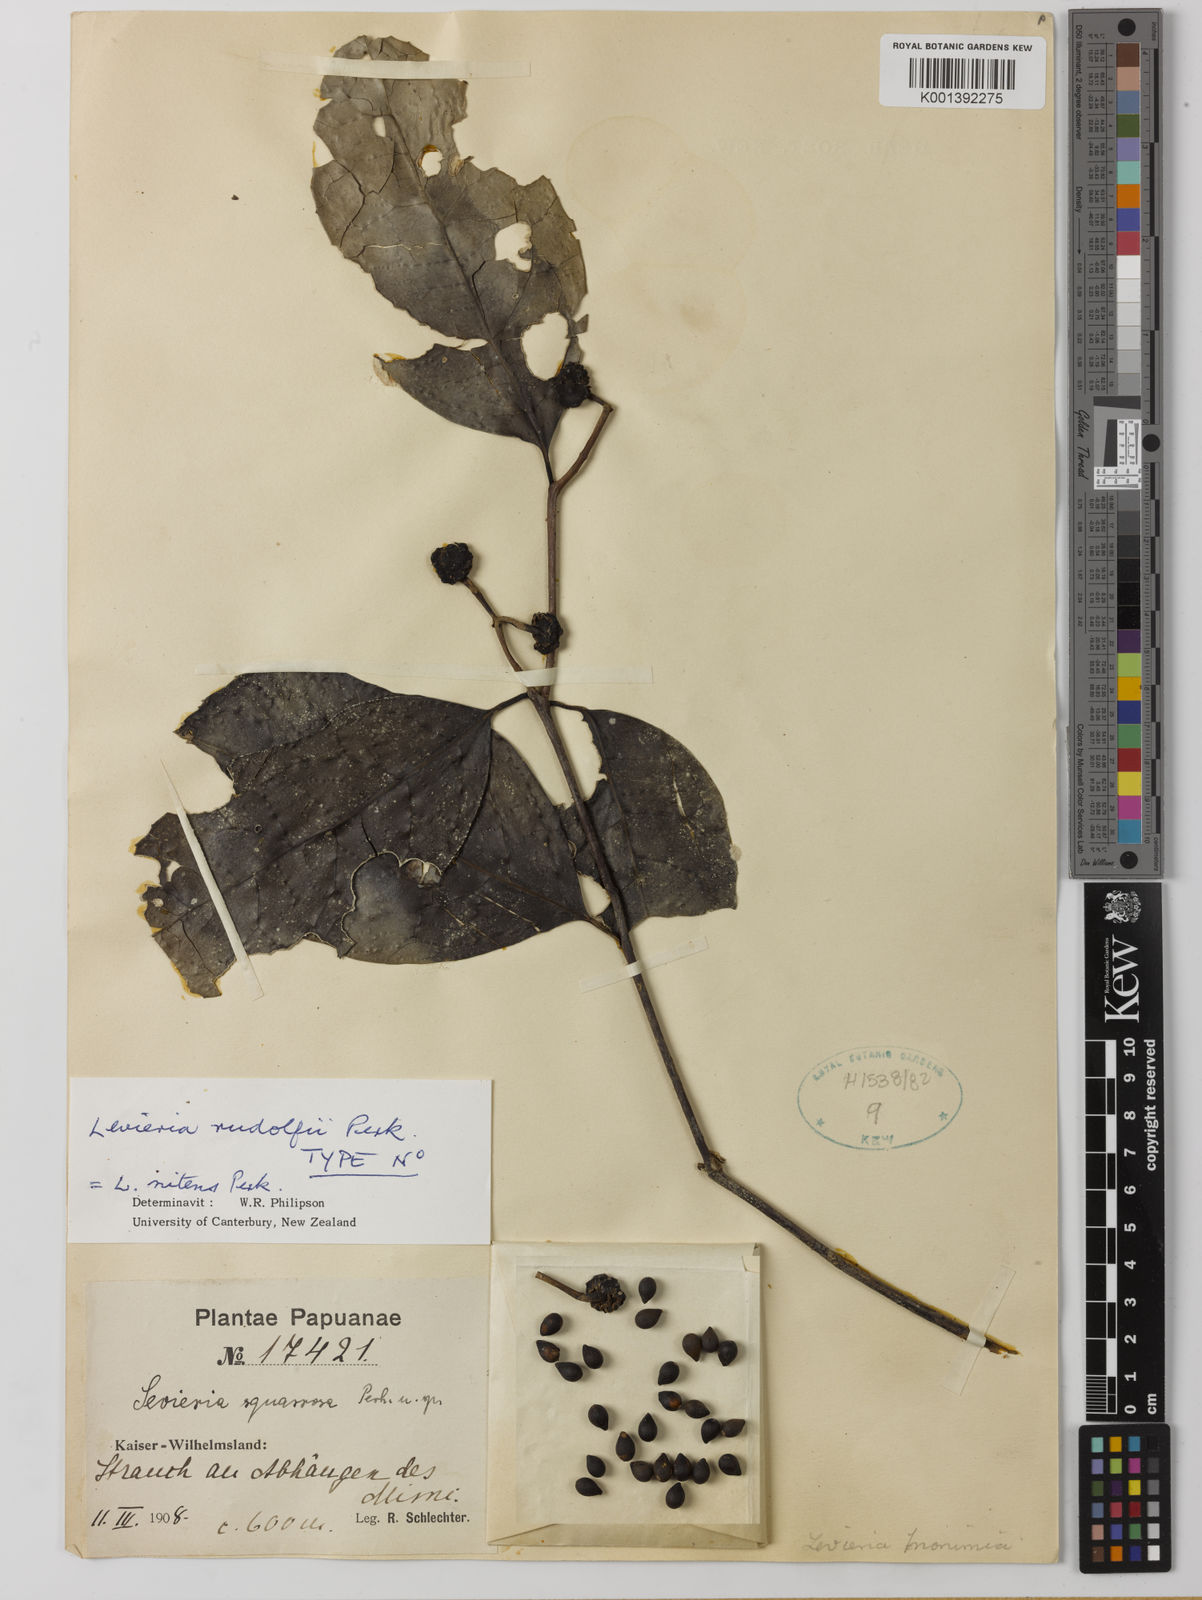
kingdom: Plantae
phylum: Tracheophyta
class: Magnoliopsida
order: Laurales
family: Monimiaceae
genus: Levieria
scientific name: Levieria nitens
